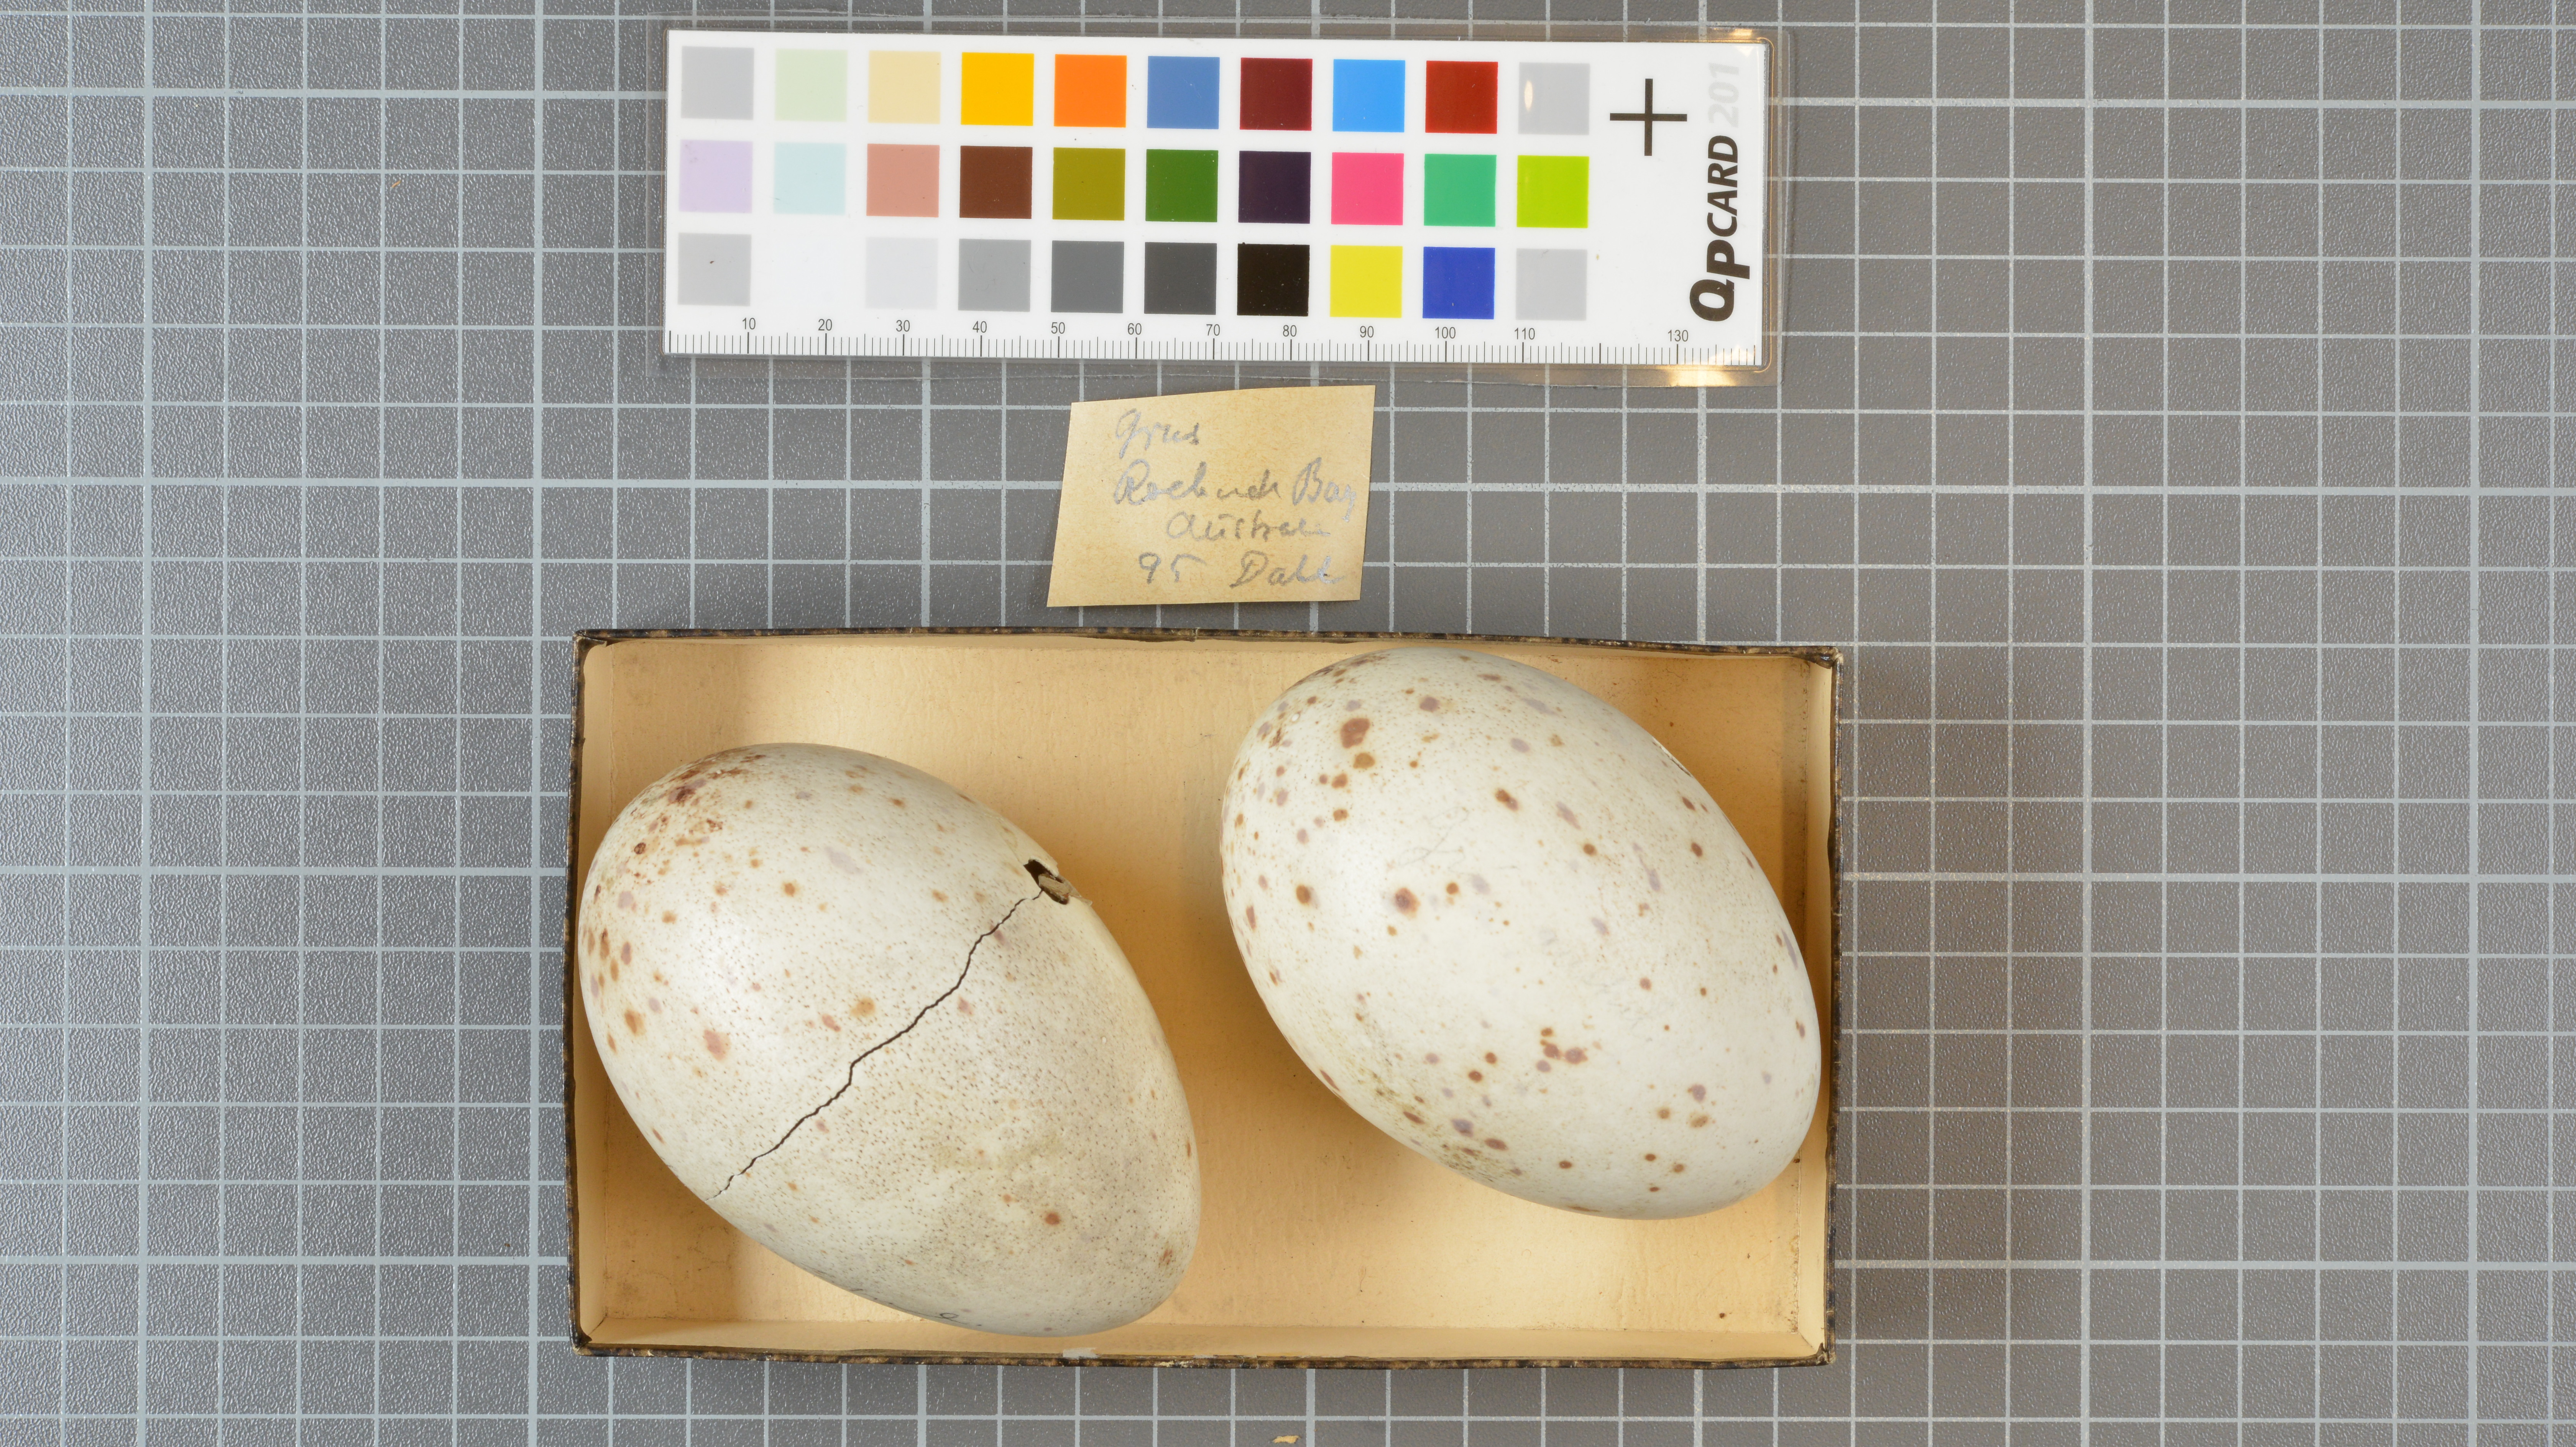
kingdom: Animalia
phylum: Chordata
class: Aves
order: Gruiformes
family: Gruidae
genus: Grus
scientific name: Grus
